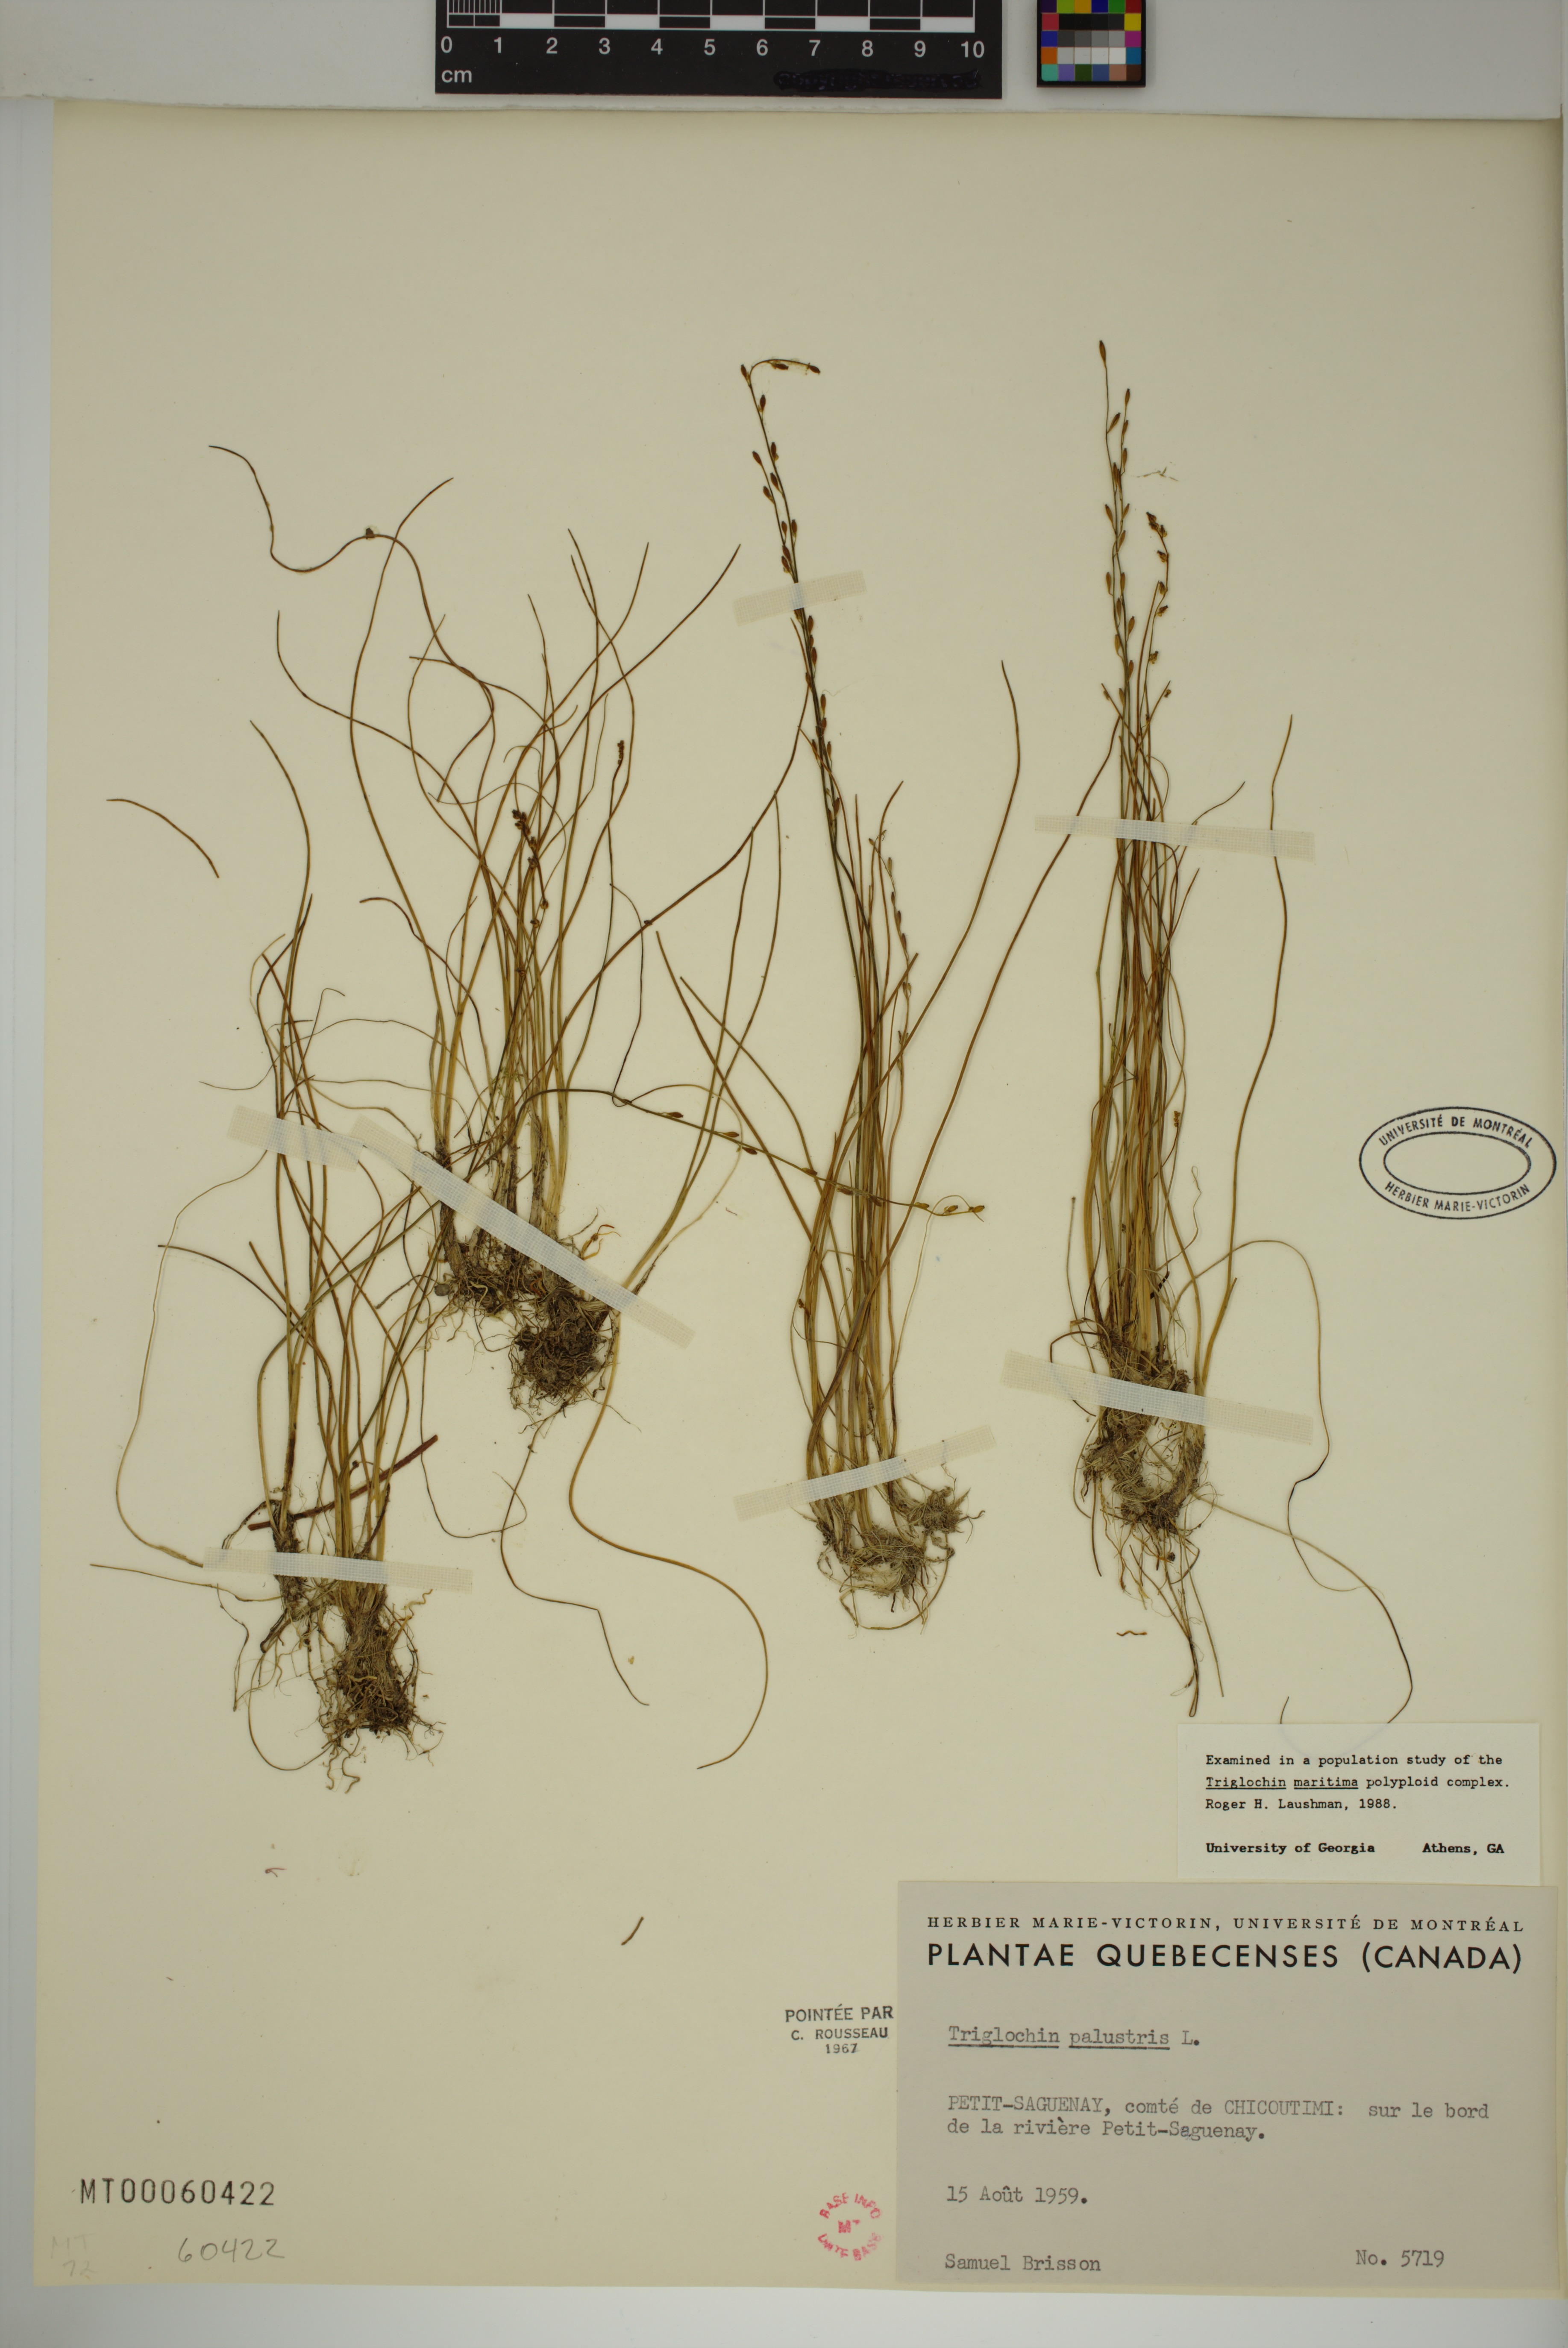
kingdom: Plantae
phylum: Tracheophyta
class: Liliopsida
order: Alismatales
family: Juncaginaceae
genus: Triglochin
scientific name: Triglochin palustris
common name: Marsh arrowgrass
